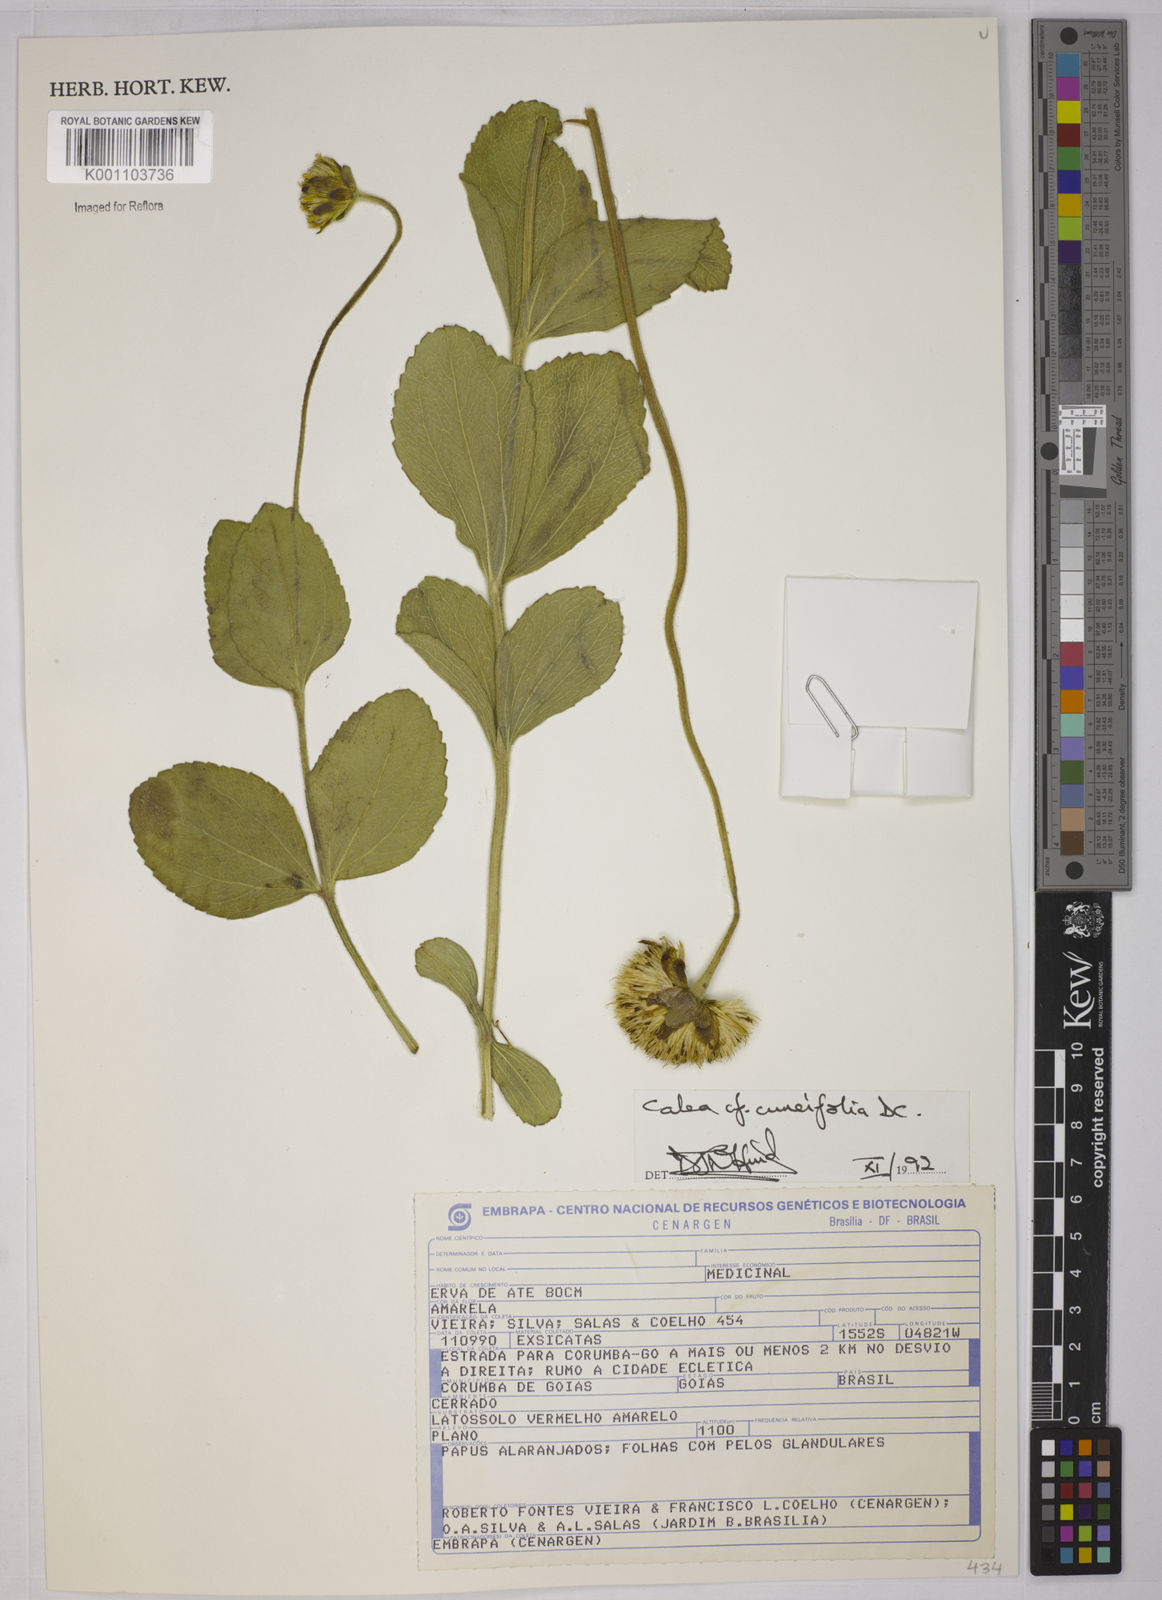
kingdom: Plantae
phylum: Tracheophyta
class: Magnoliopsida
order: Asterales
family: Asteraceae
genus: Calea
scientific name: Calea cuneifolia
